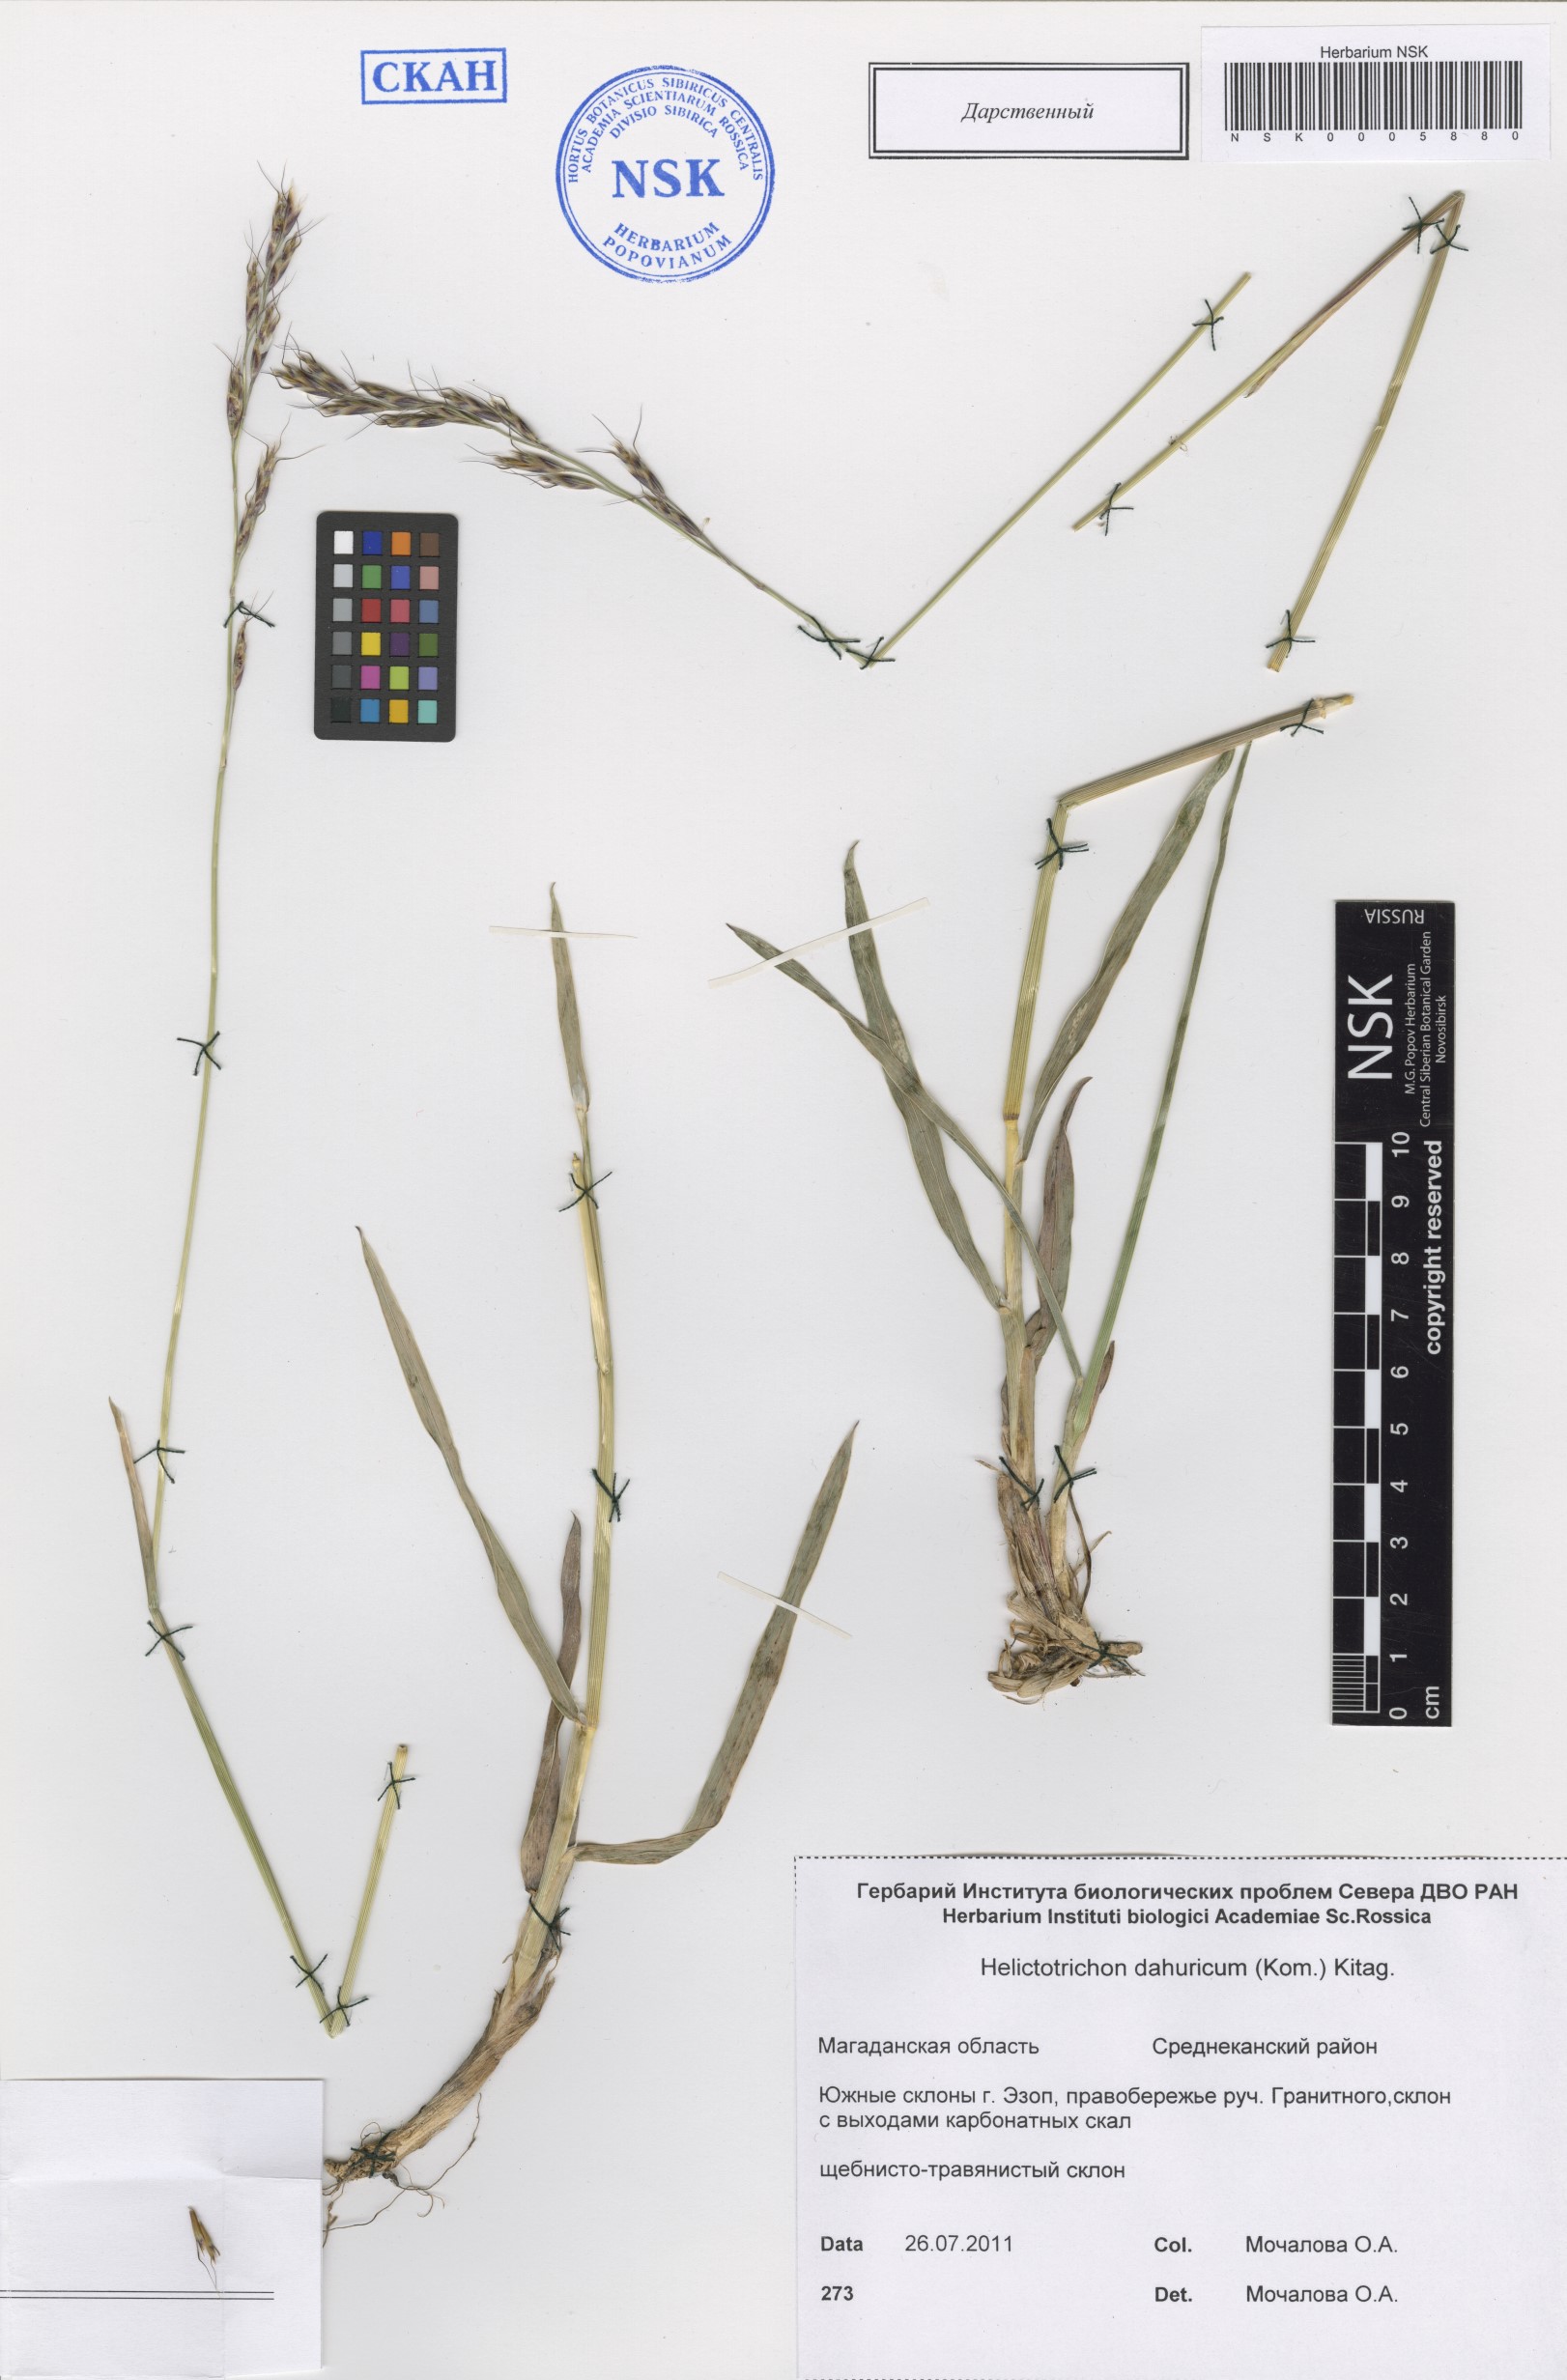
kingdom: Plantae
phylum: Tracheophyta
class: Liliopsida
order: Poales
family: Poaceae
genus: Helictochloa
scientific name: Helictochloa dahurica
